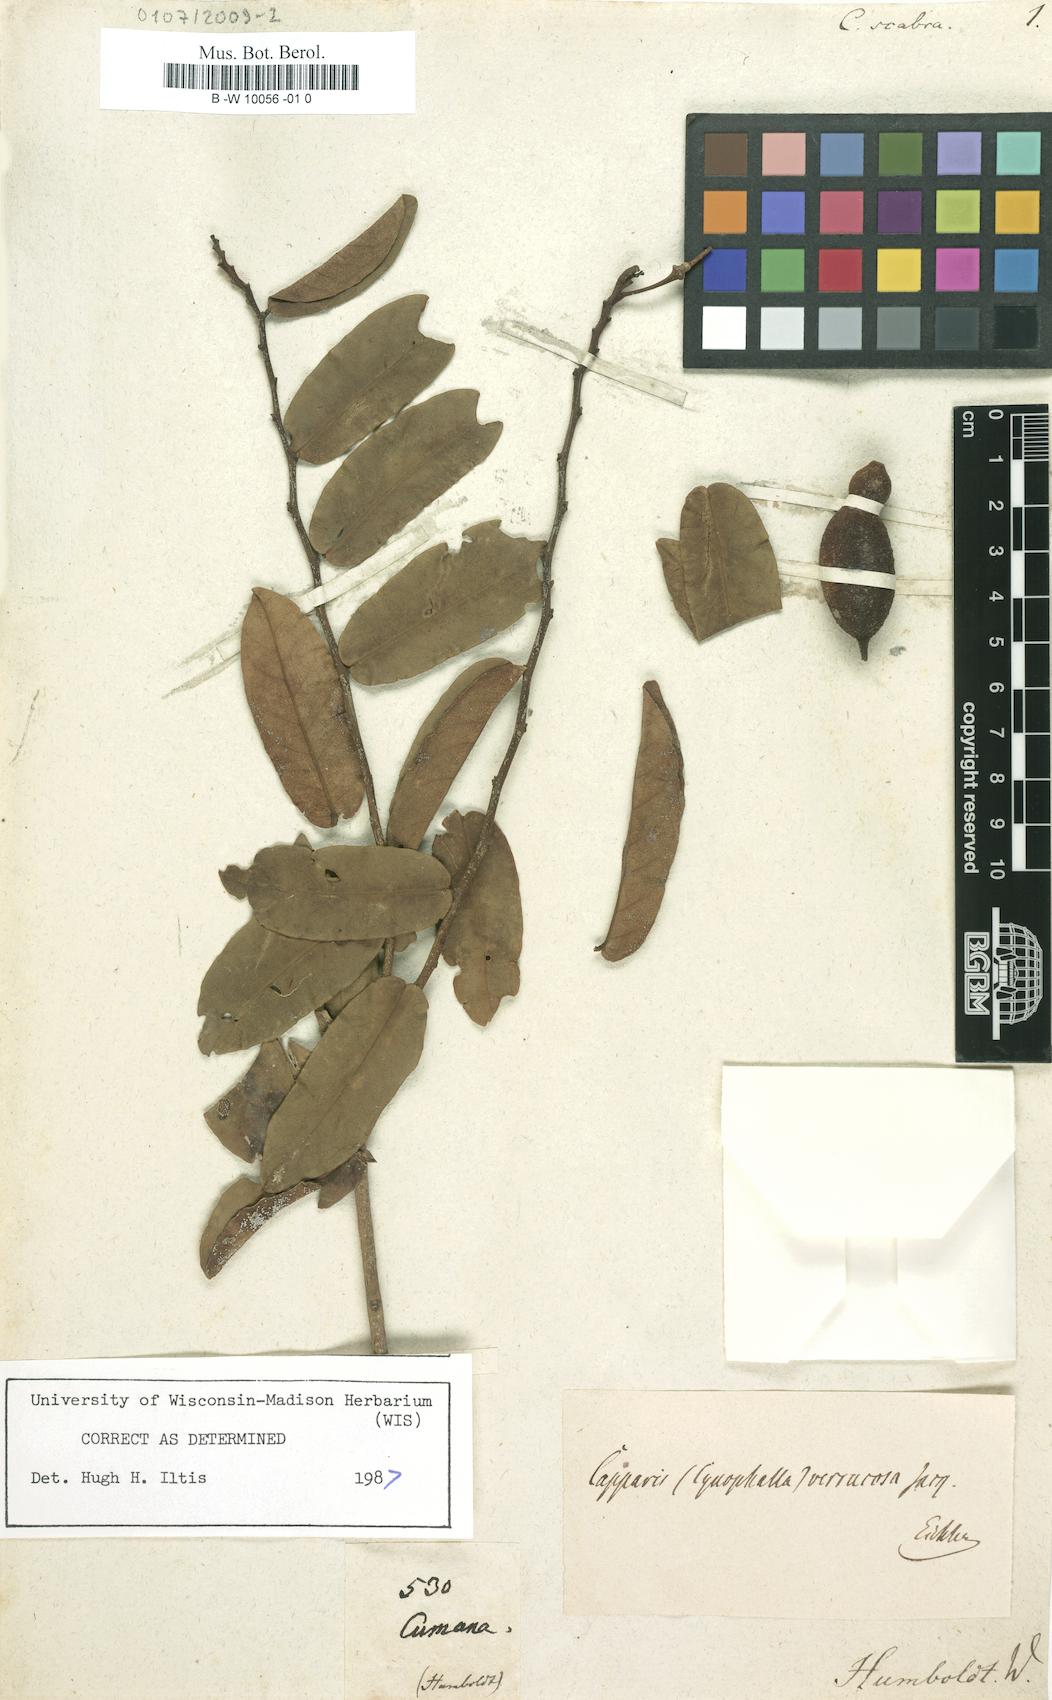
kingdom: Plantae
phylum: Tracheophyta
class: Magnoliopsida
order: Brassicales
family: Capparaceae
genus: Colicodendron
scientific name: Colicodendron scabridum
